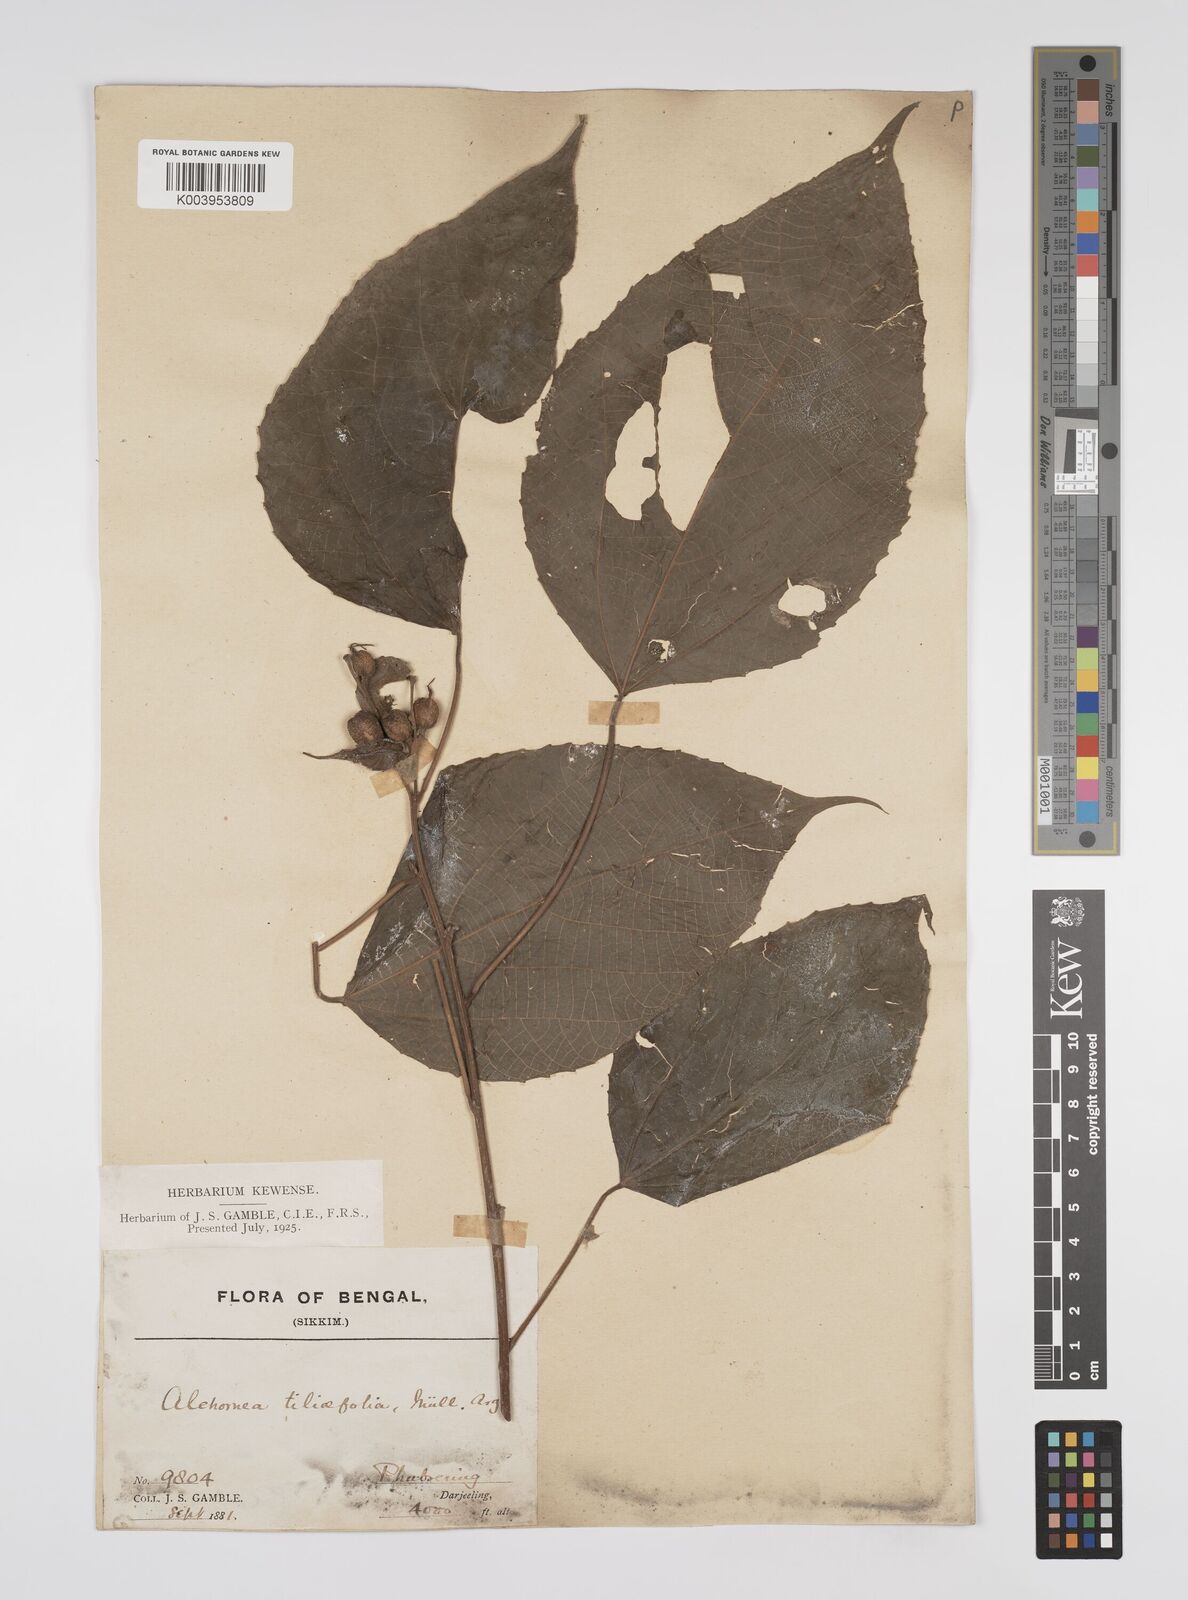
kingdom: Plantae
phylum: Tracheophyta
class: Magnoliopsida
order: Malpighiales
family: Euphorbiaceae
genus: Alchornea
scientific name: Alchornea tiliifolia
